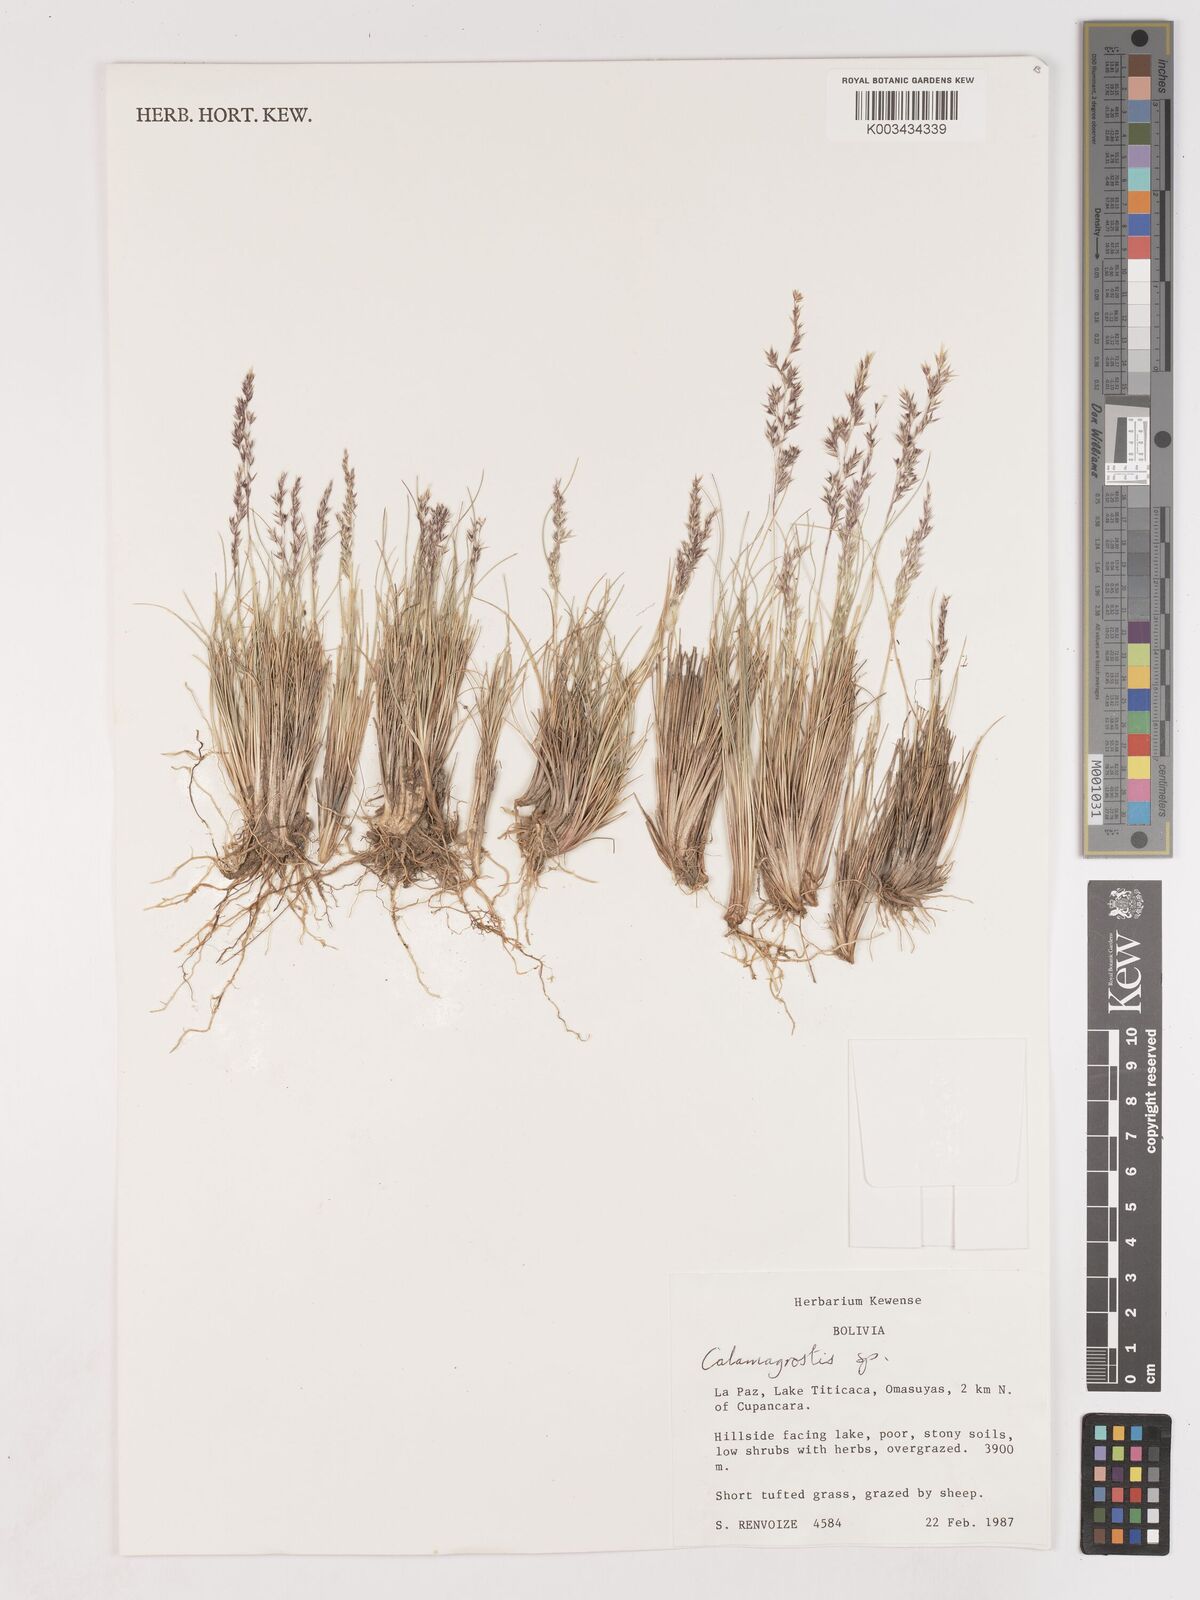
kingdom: Plantae
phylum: Tracheophyta
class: Liliopsida
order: Poales
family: Poaceae
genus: Cinnagrostis
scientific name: Cinnagrostis violacea
